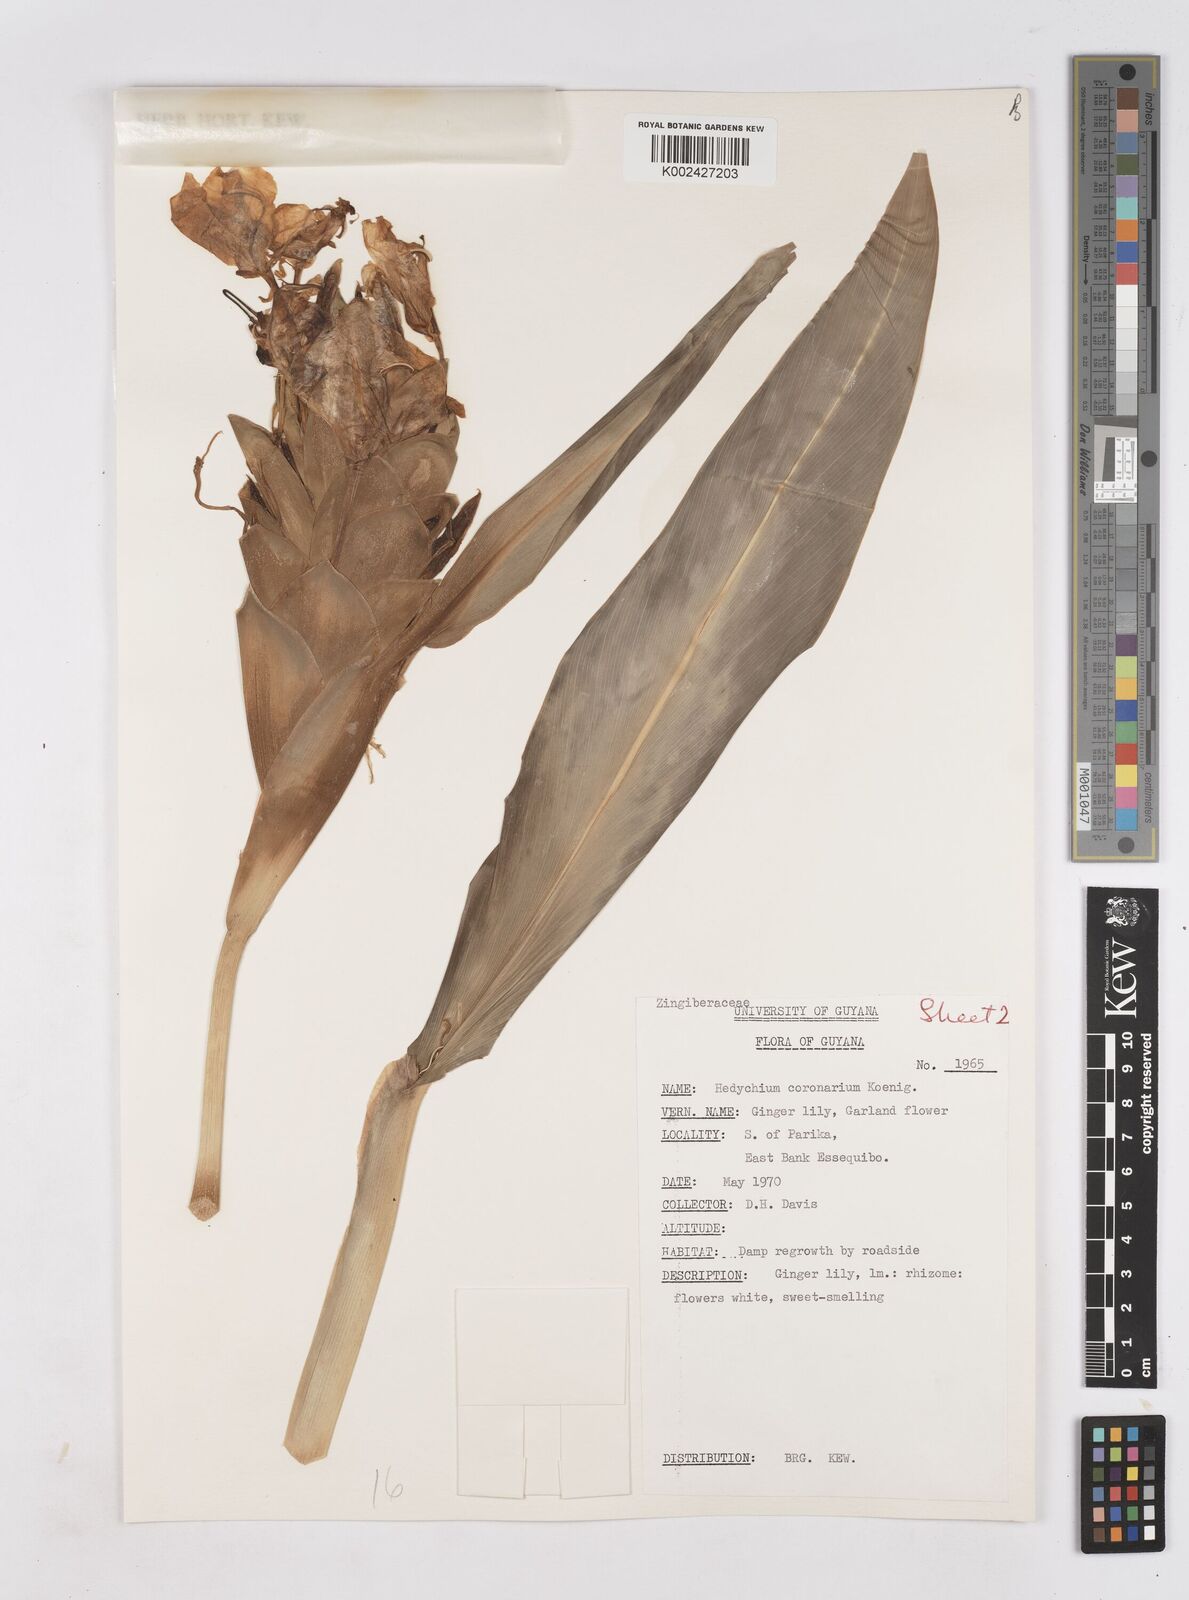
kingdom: Plantae
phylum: Tracheophyta
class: Liliopsida
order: Zingiberales
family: Zingiberaceae
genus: Hedychium
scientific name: Hedychium coronarium
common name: White garland-lily
